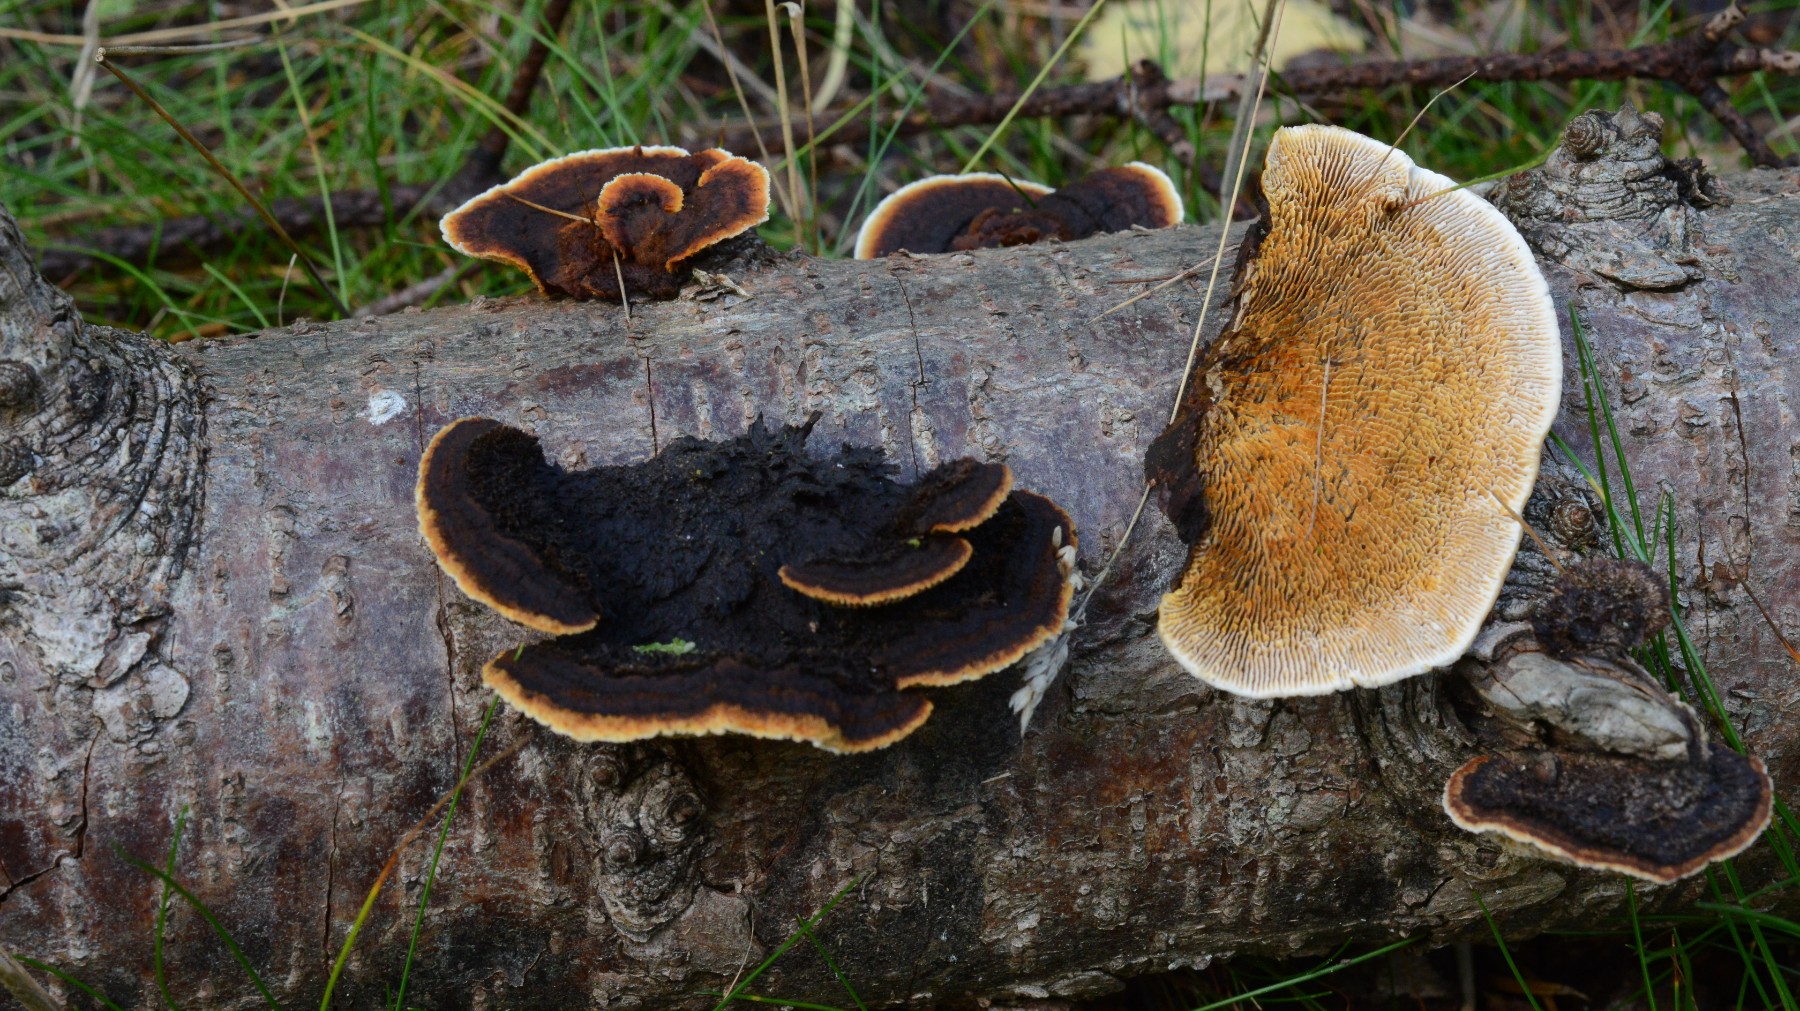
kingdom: Fungi
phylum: Basidiomycota
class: Agaricomycetes
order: Gloeophyllales
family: Gloeophyllaceae
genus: Gloeophyllum
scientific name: Gloeophyllum sepiarium
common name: fyrre-korkhat
